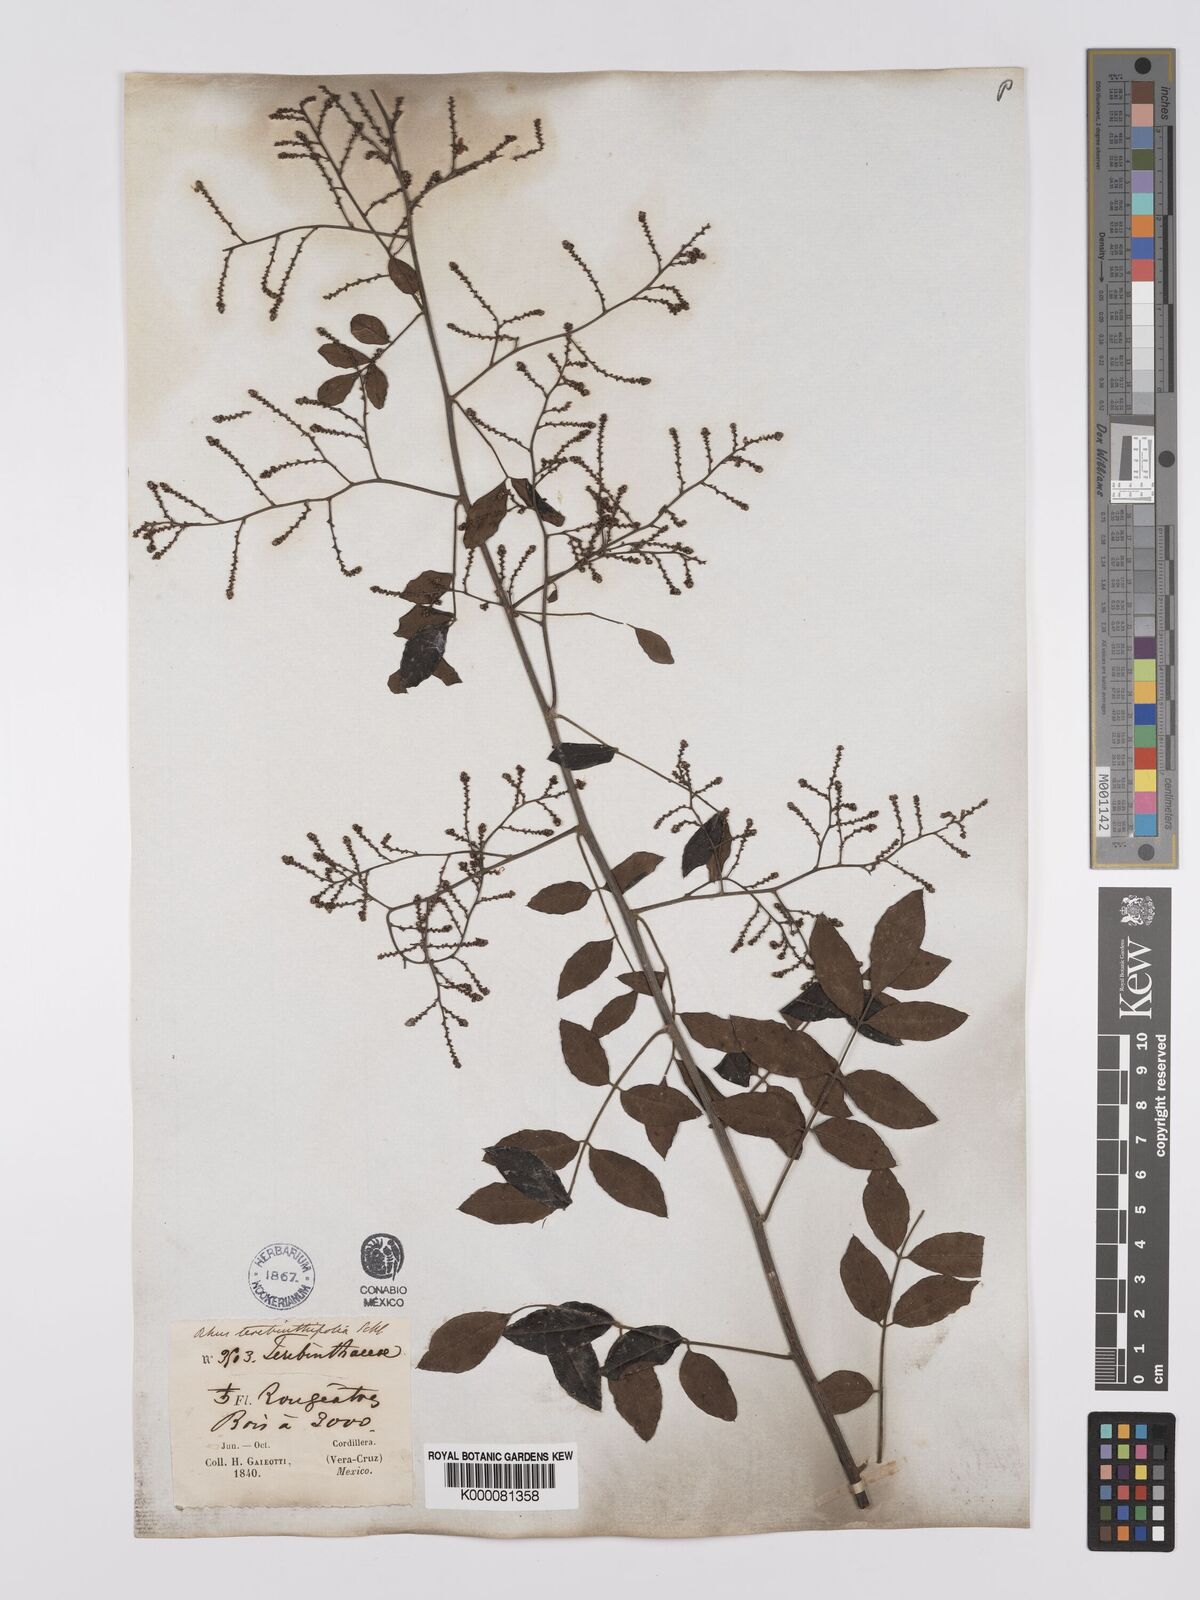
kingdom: Plantae
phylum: Tracheophyta
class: Magnoliopsida
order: Sapindales
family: Anacardiaceae
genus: Rhus
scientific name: Rhus
